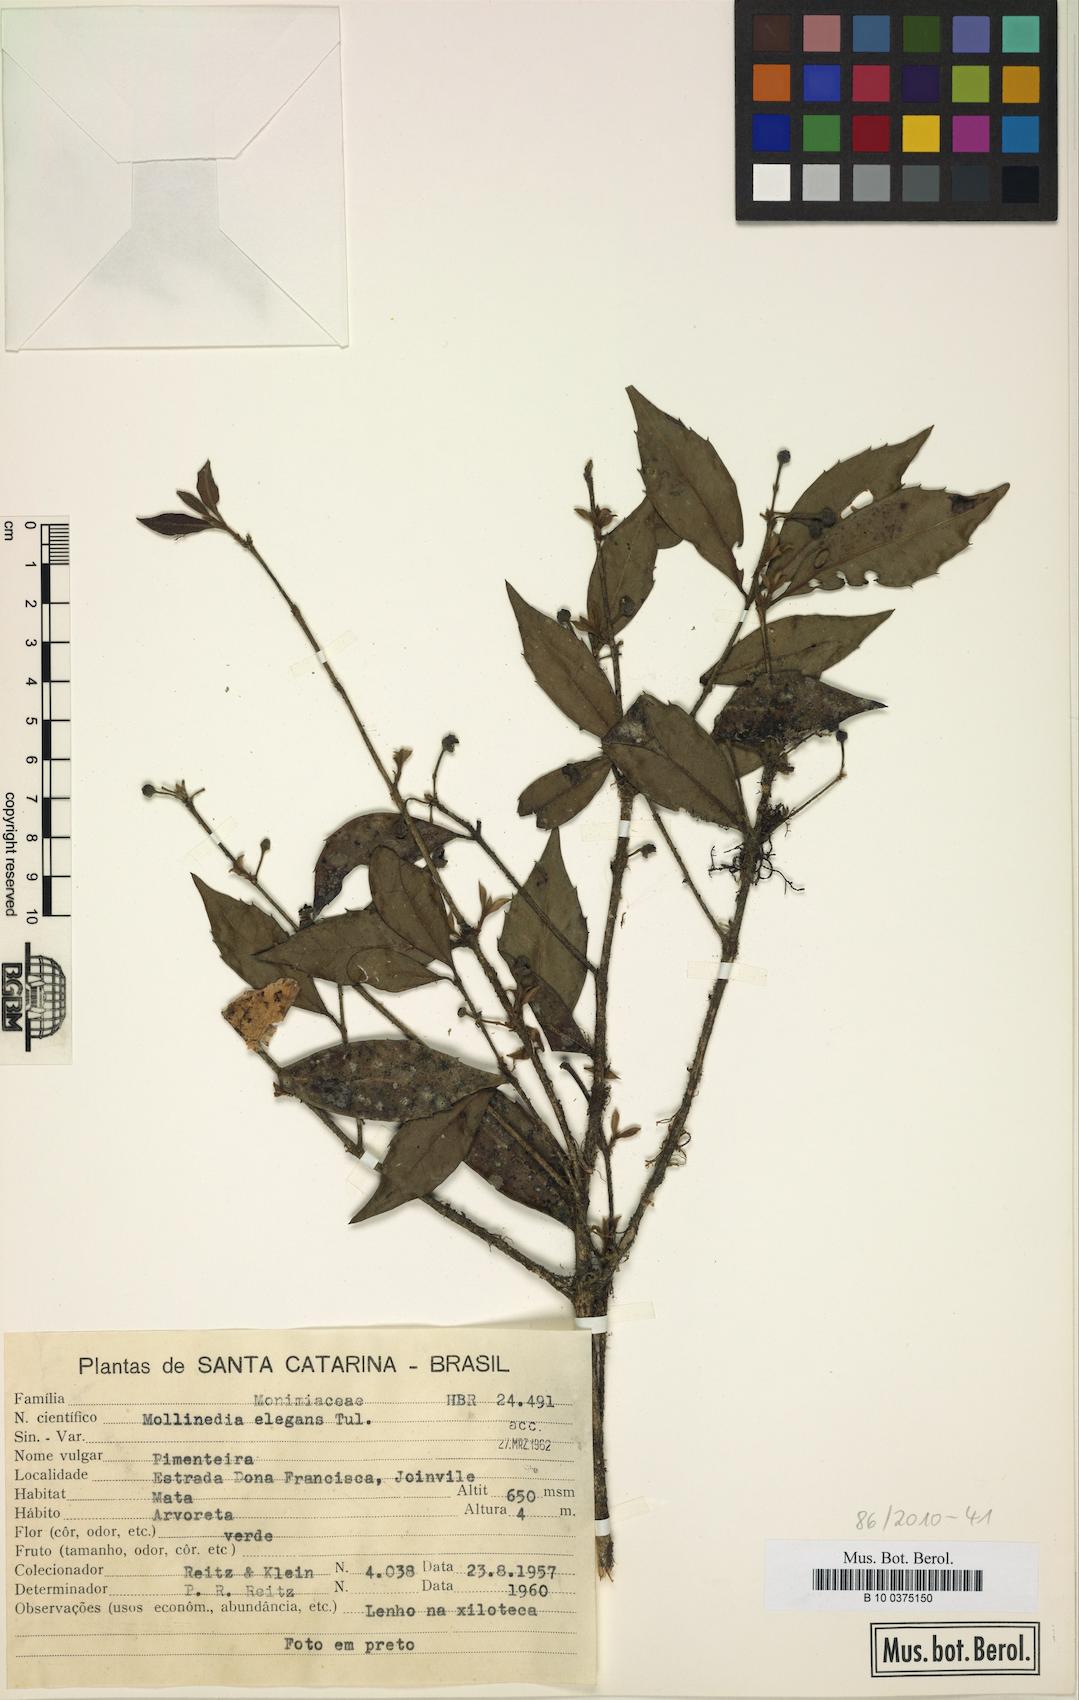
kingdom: Plantae
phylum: Tracheophyta
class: Magnoliopsida
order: Laurales
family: Monimiaceae
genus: Mollinedia
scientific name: Mollinedia elegans
